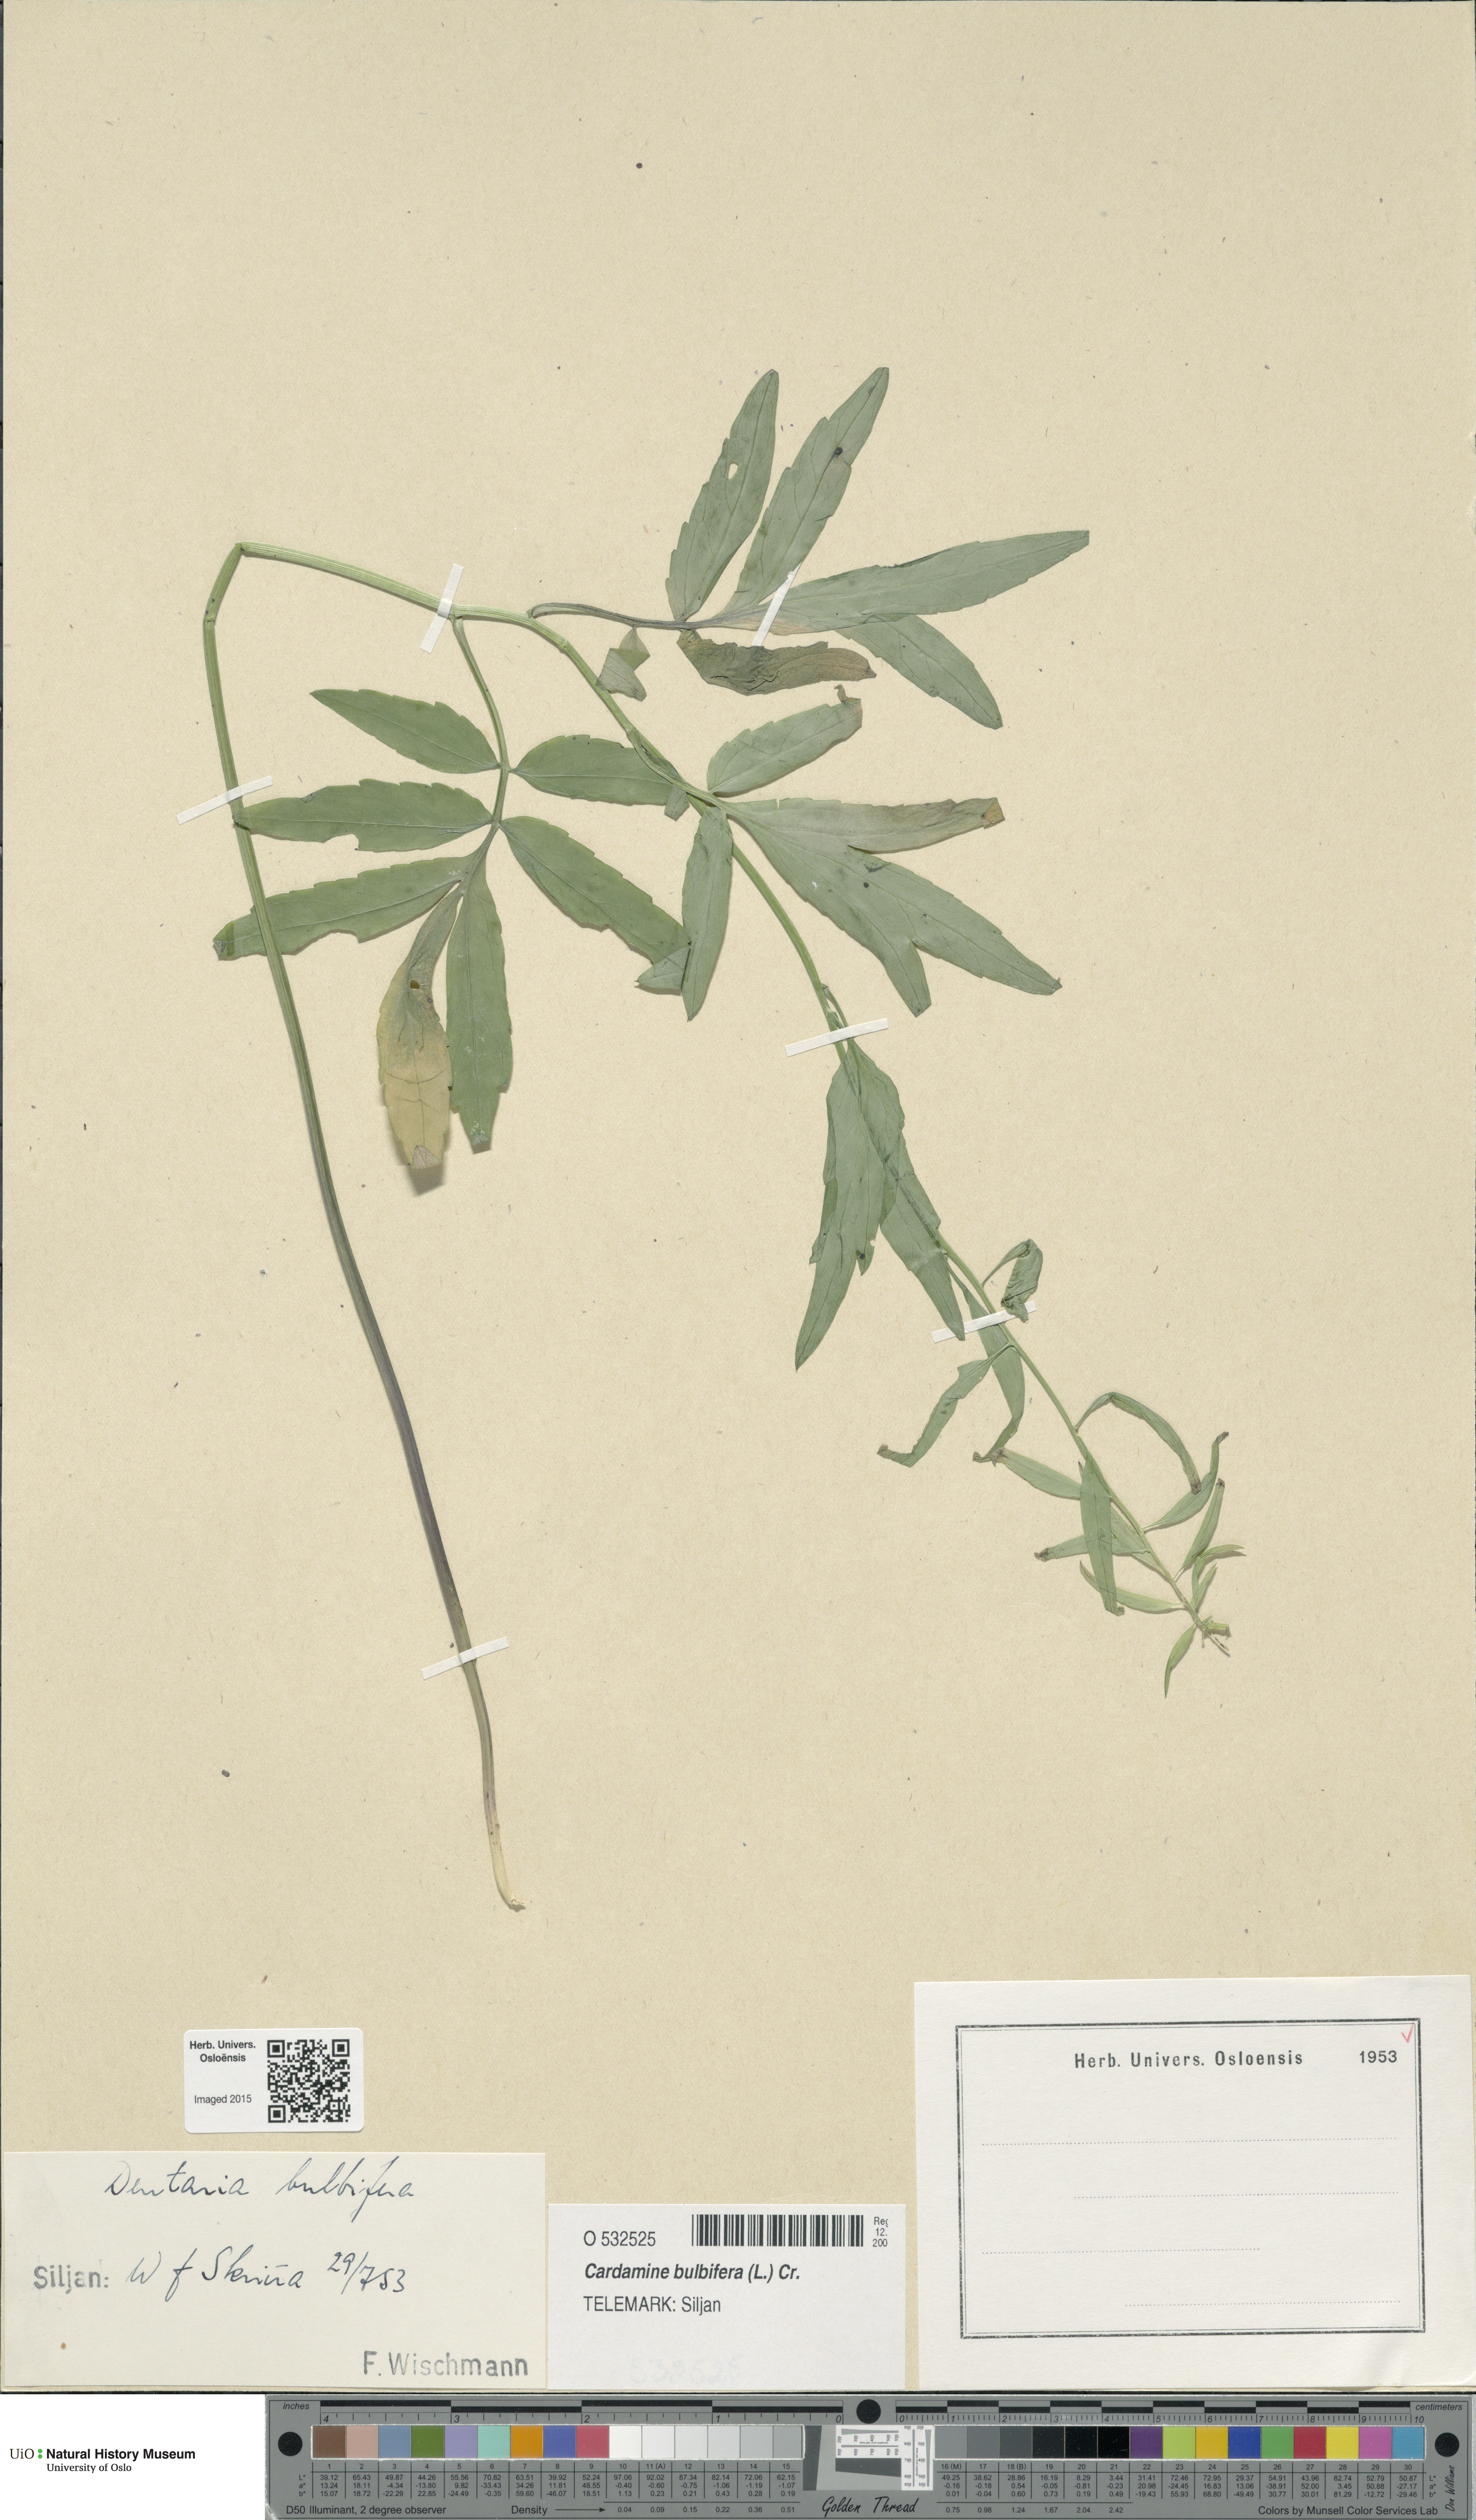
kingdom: Plantae
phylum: Tracheophyta
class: Magnoliopsida
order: Brassicales
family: Brassicaceae
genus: Cardamine
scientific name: Cardamine bulbifera
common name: Coralroot bittercress
